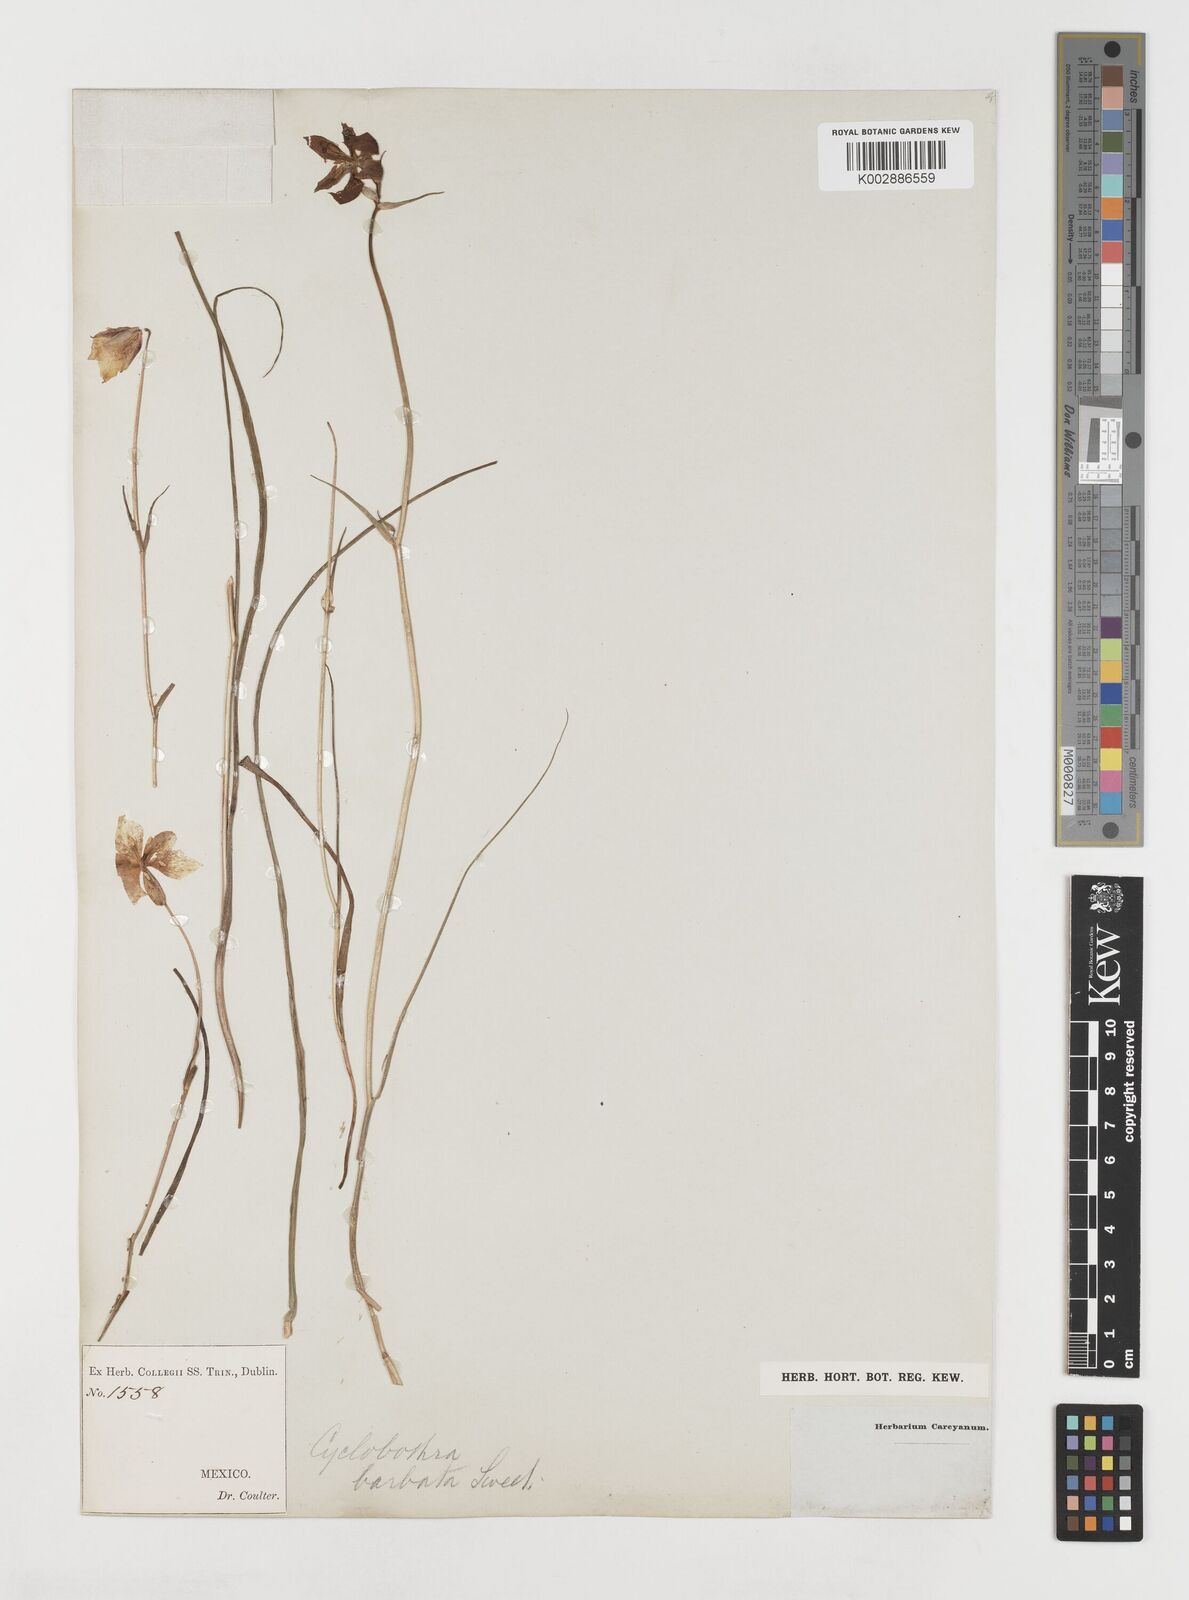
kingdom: Plantae
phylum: Tracheophyta
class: Liliopsida
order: Liliales
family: Liliaceae
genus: Calochortus
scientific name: Calochortus barbatus
